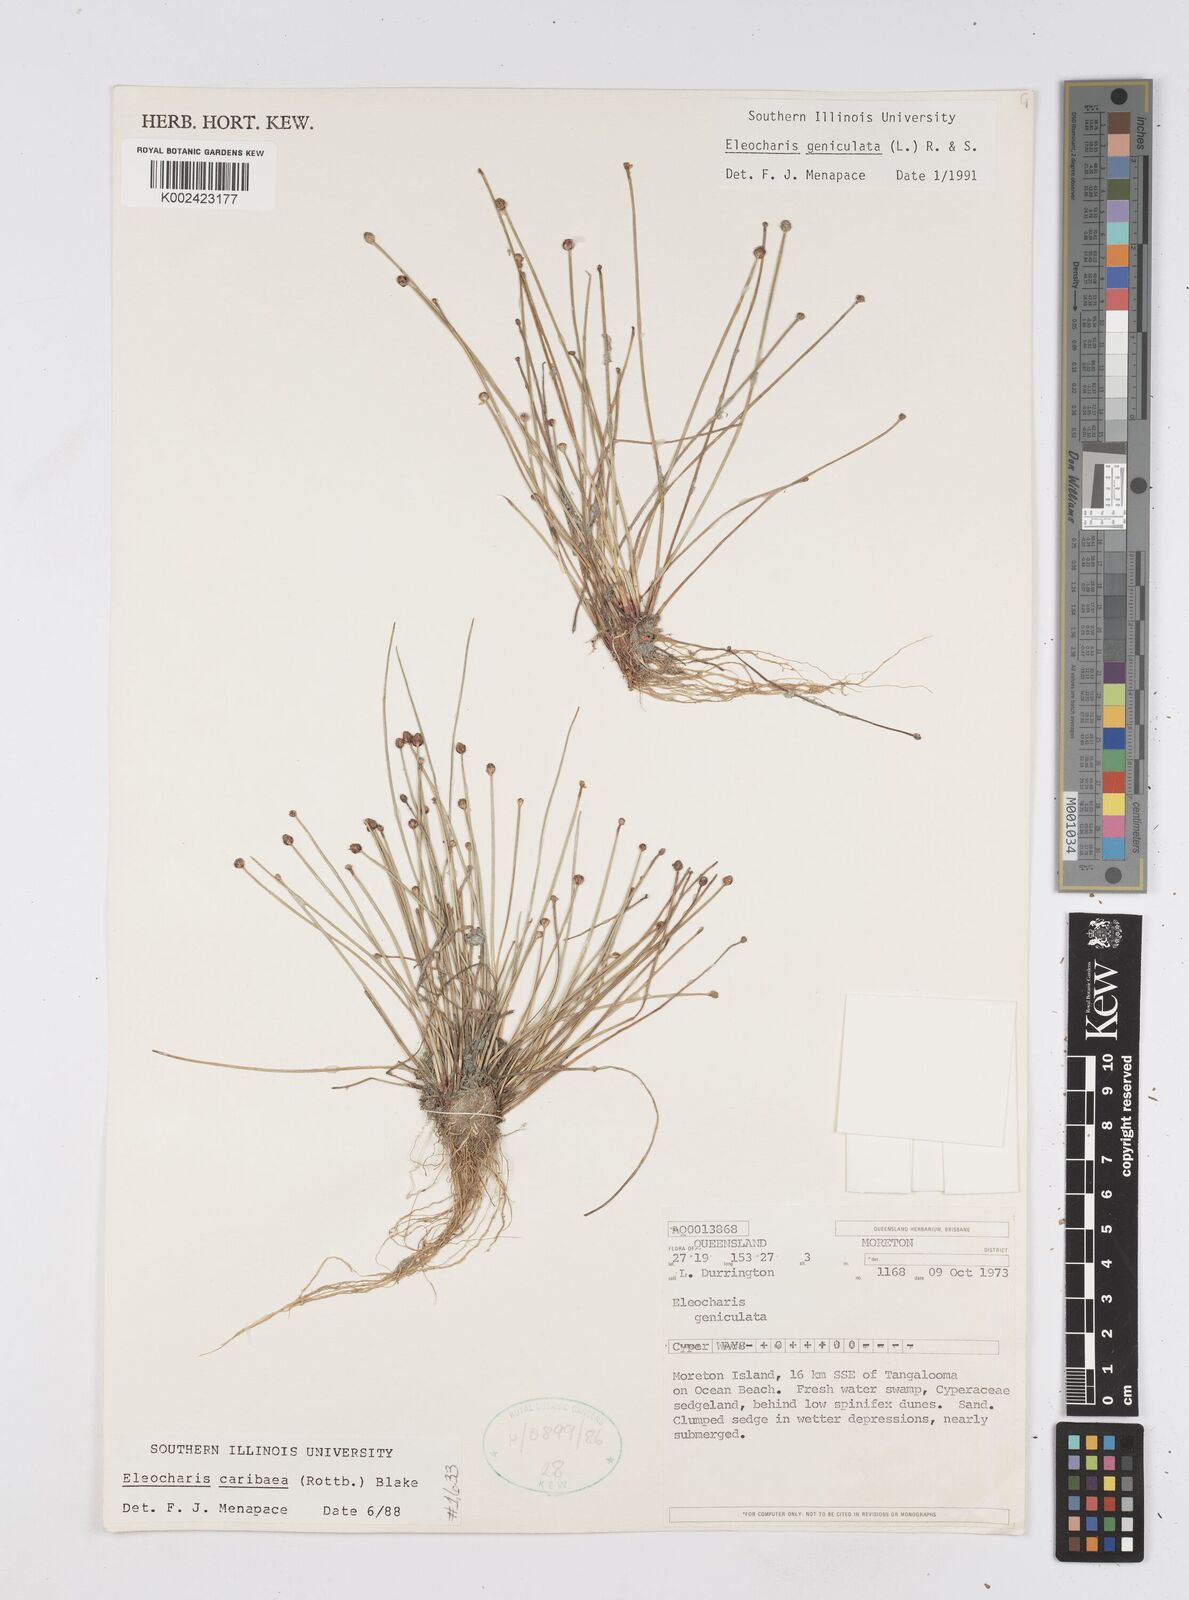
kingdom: Plantae
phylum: Tracheophyta
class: Liliopsida
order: Poales
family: Cyperaceae
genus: Eleocharis
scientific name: Eleocharis geniculata
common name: Canada spikesedge
